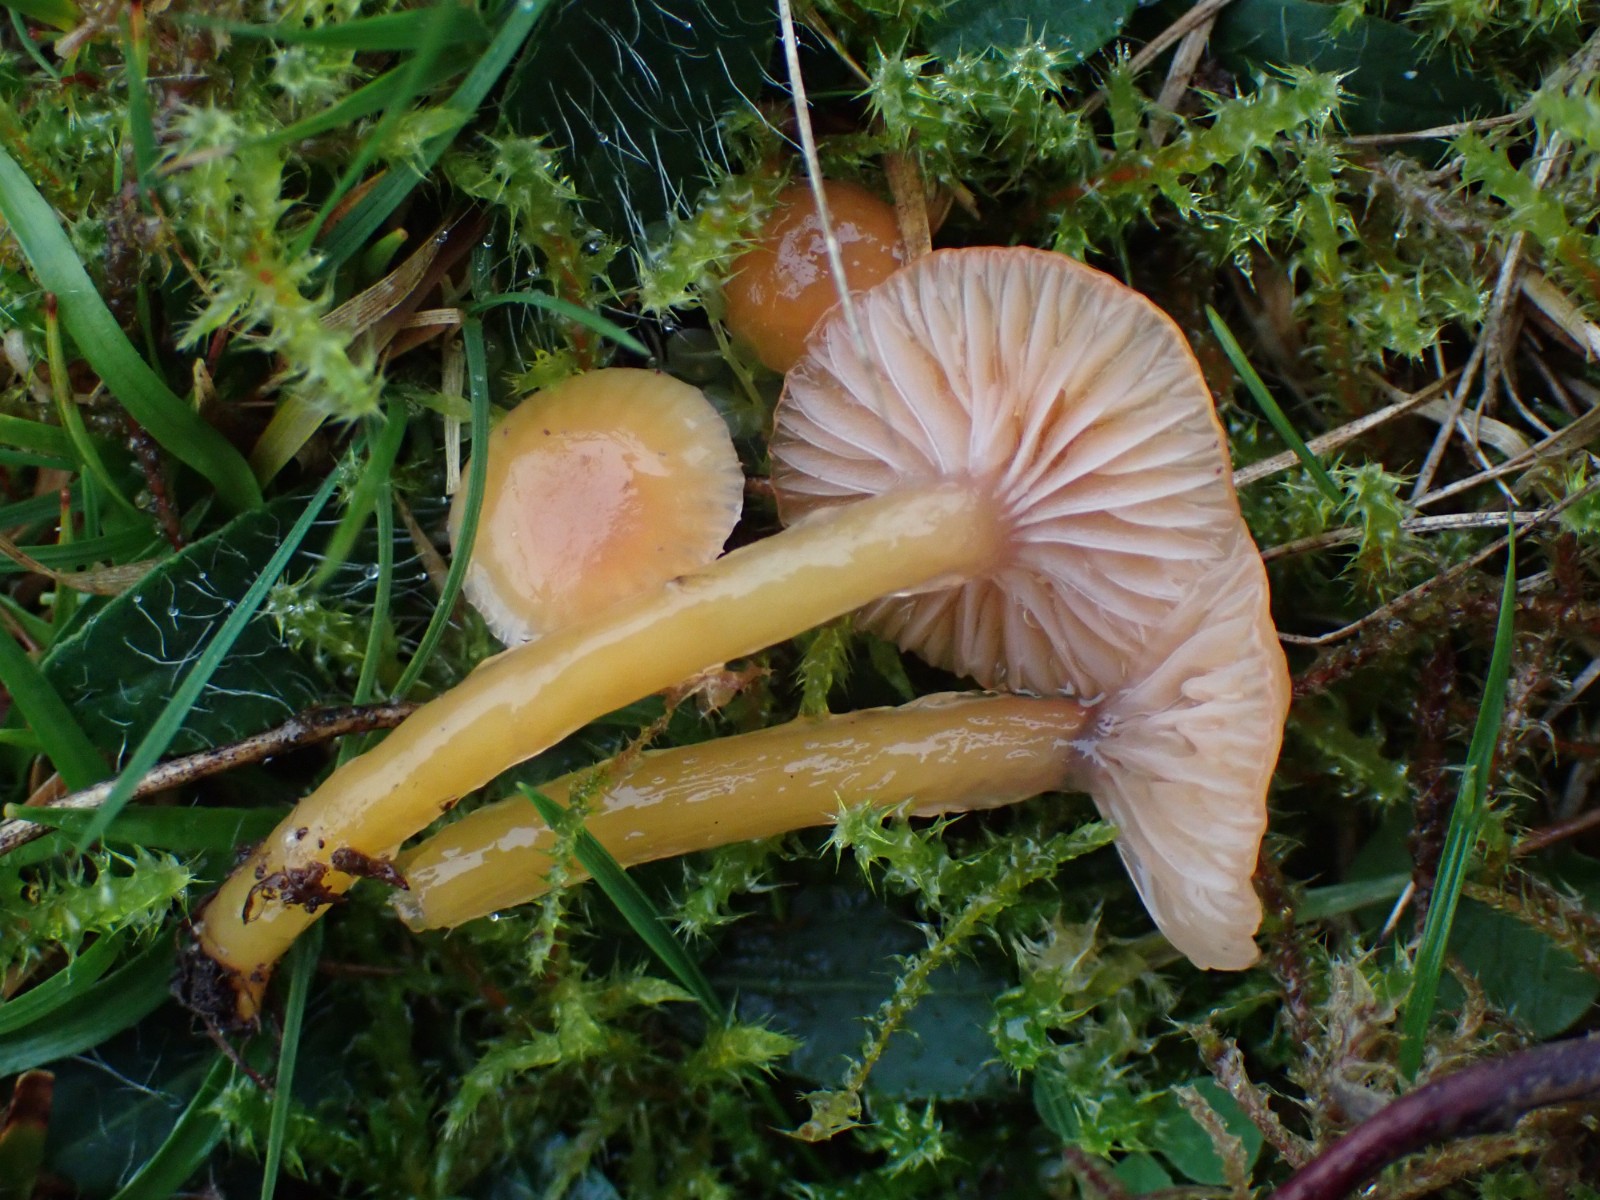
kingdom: Fungi
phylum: Basidiomycota
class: Agaricomycetes
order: Agaricales
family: Hygrophoraceae
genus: Gliophorus
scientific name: Gliophorus laetus
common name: brusk-vokshat
